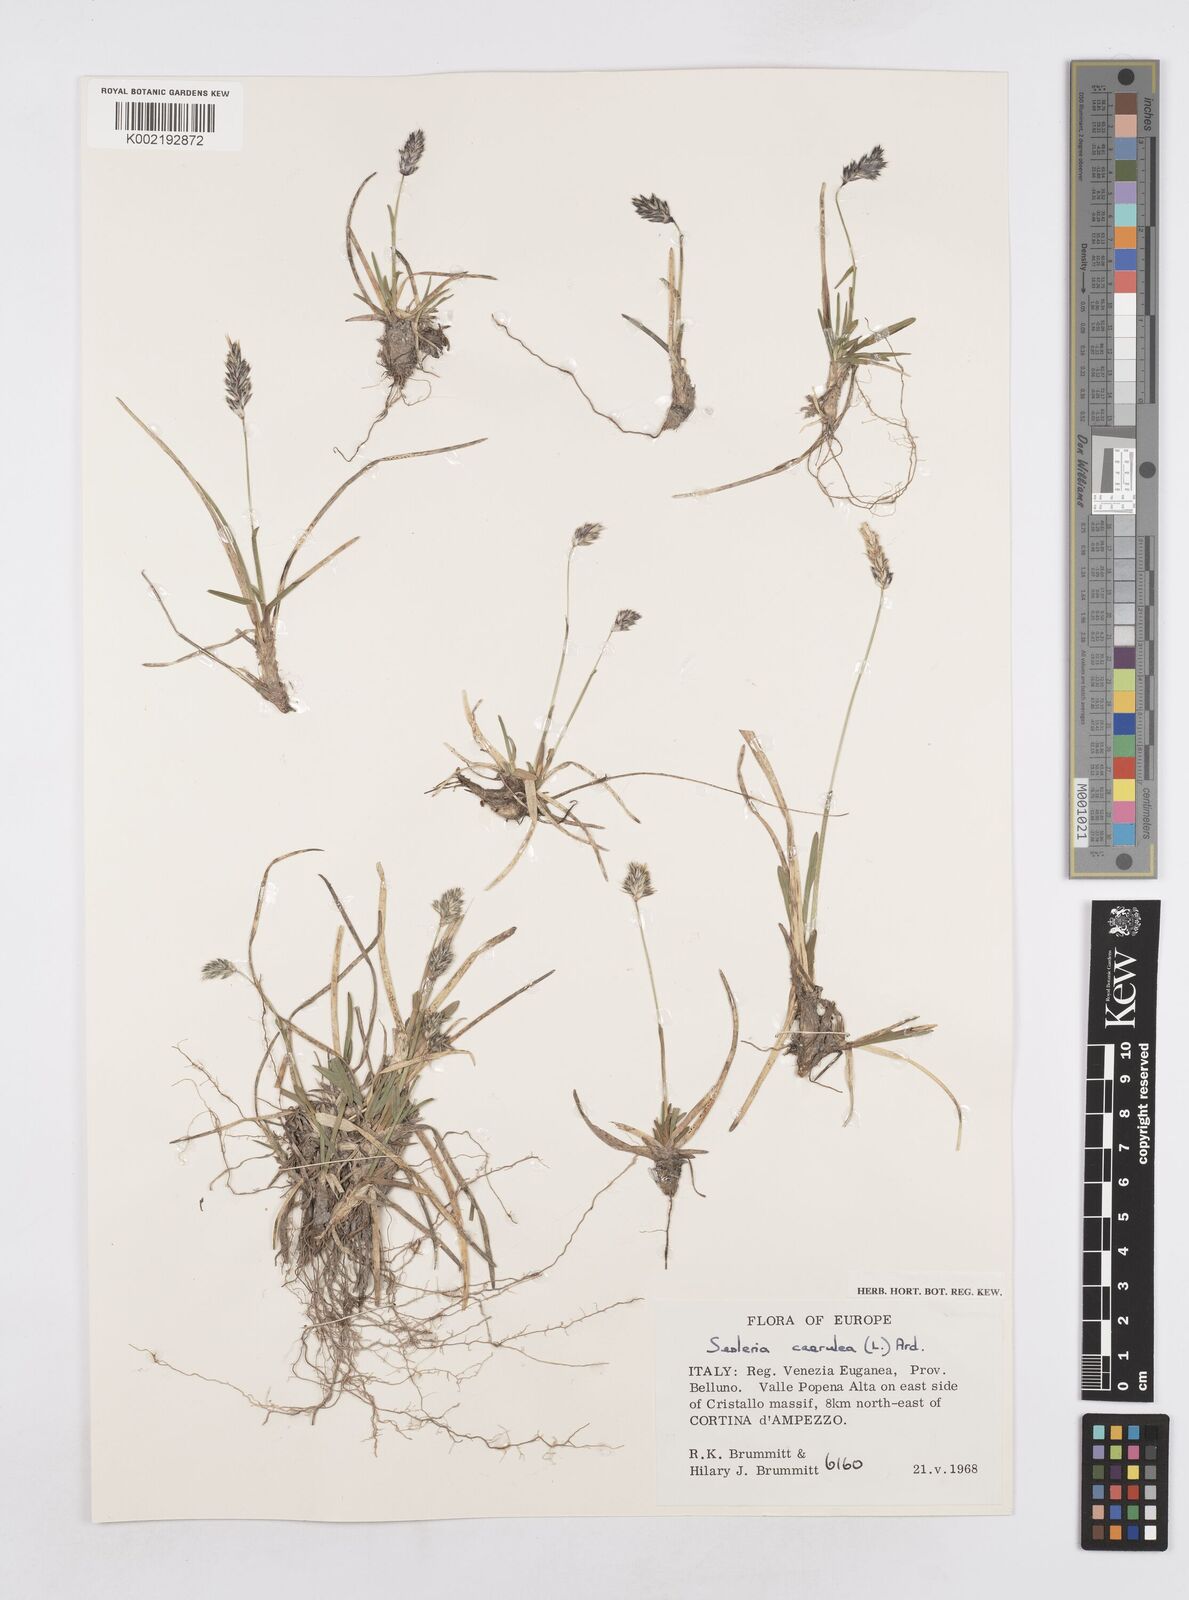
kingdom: Plantae
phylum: Tracheophyta
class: Liliopsida
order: Poales
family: Poaceae
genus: Sesleria
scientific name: Sesleria albicans
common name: Blue moor-grass
